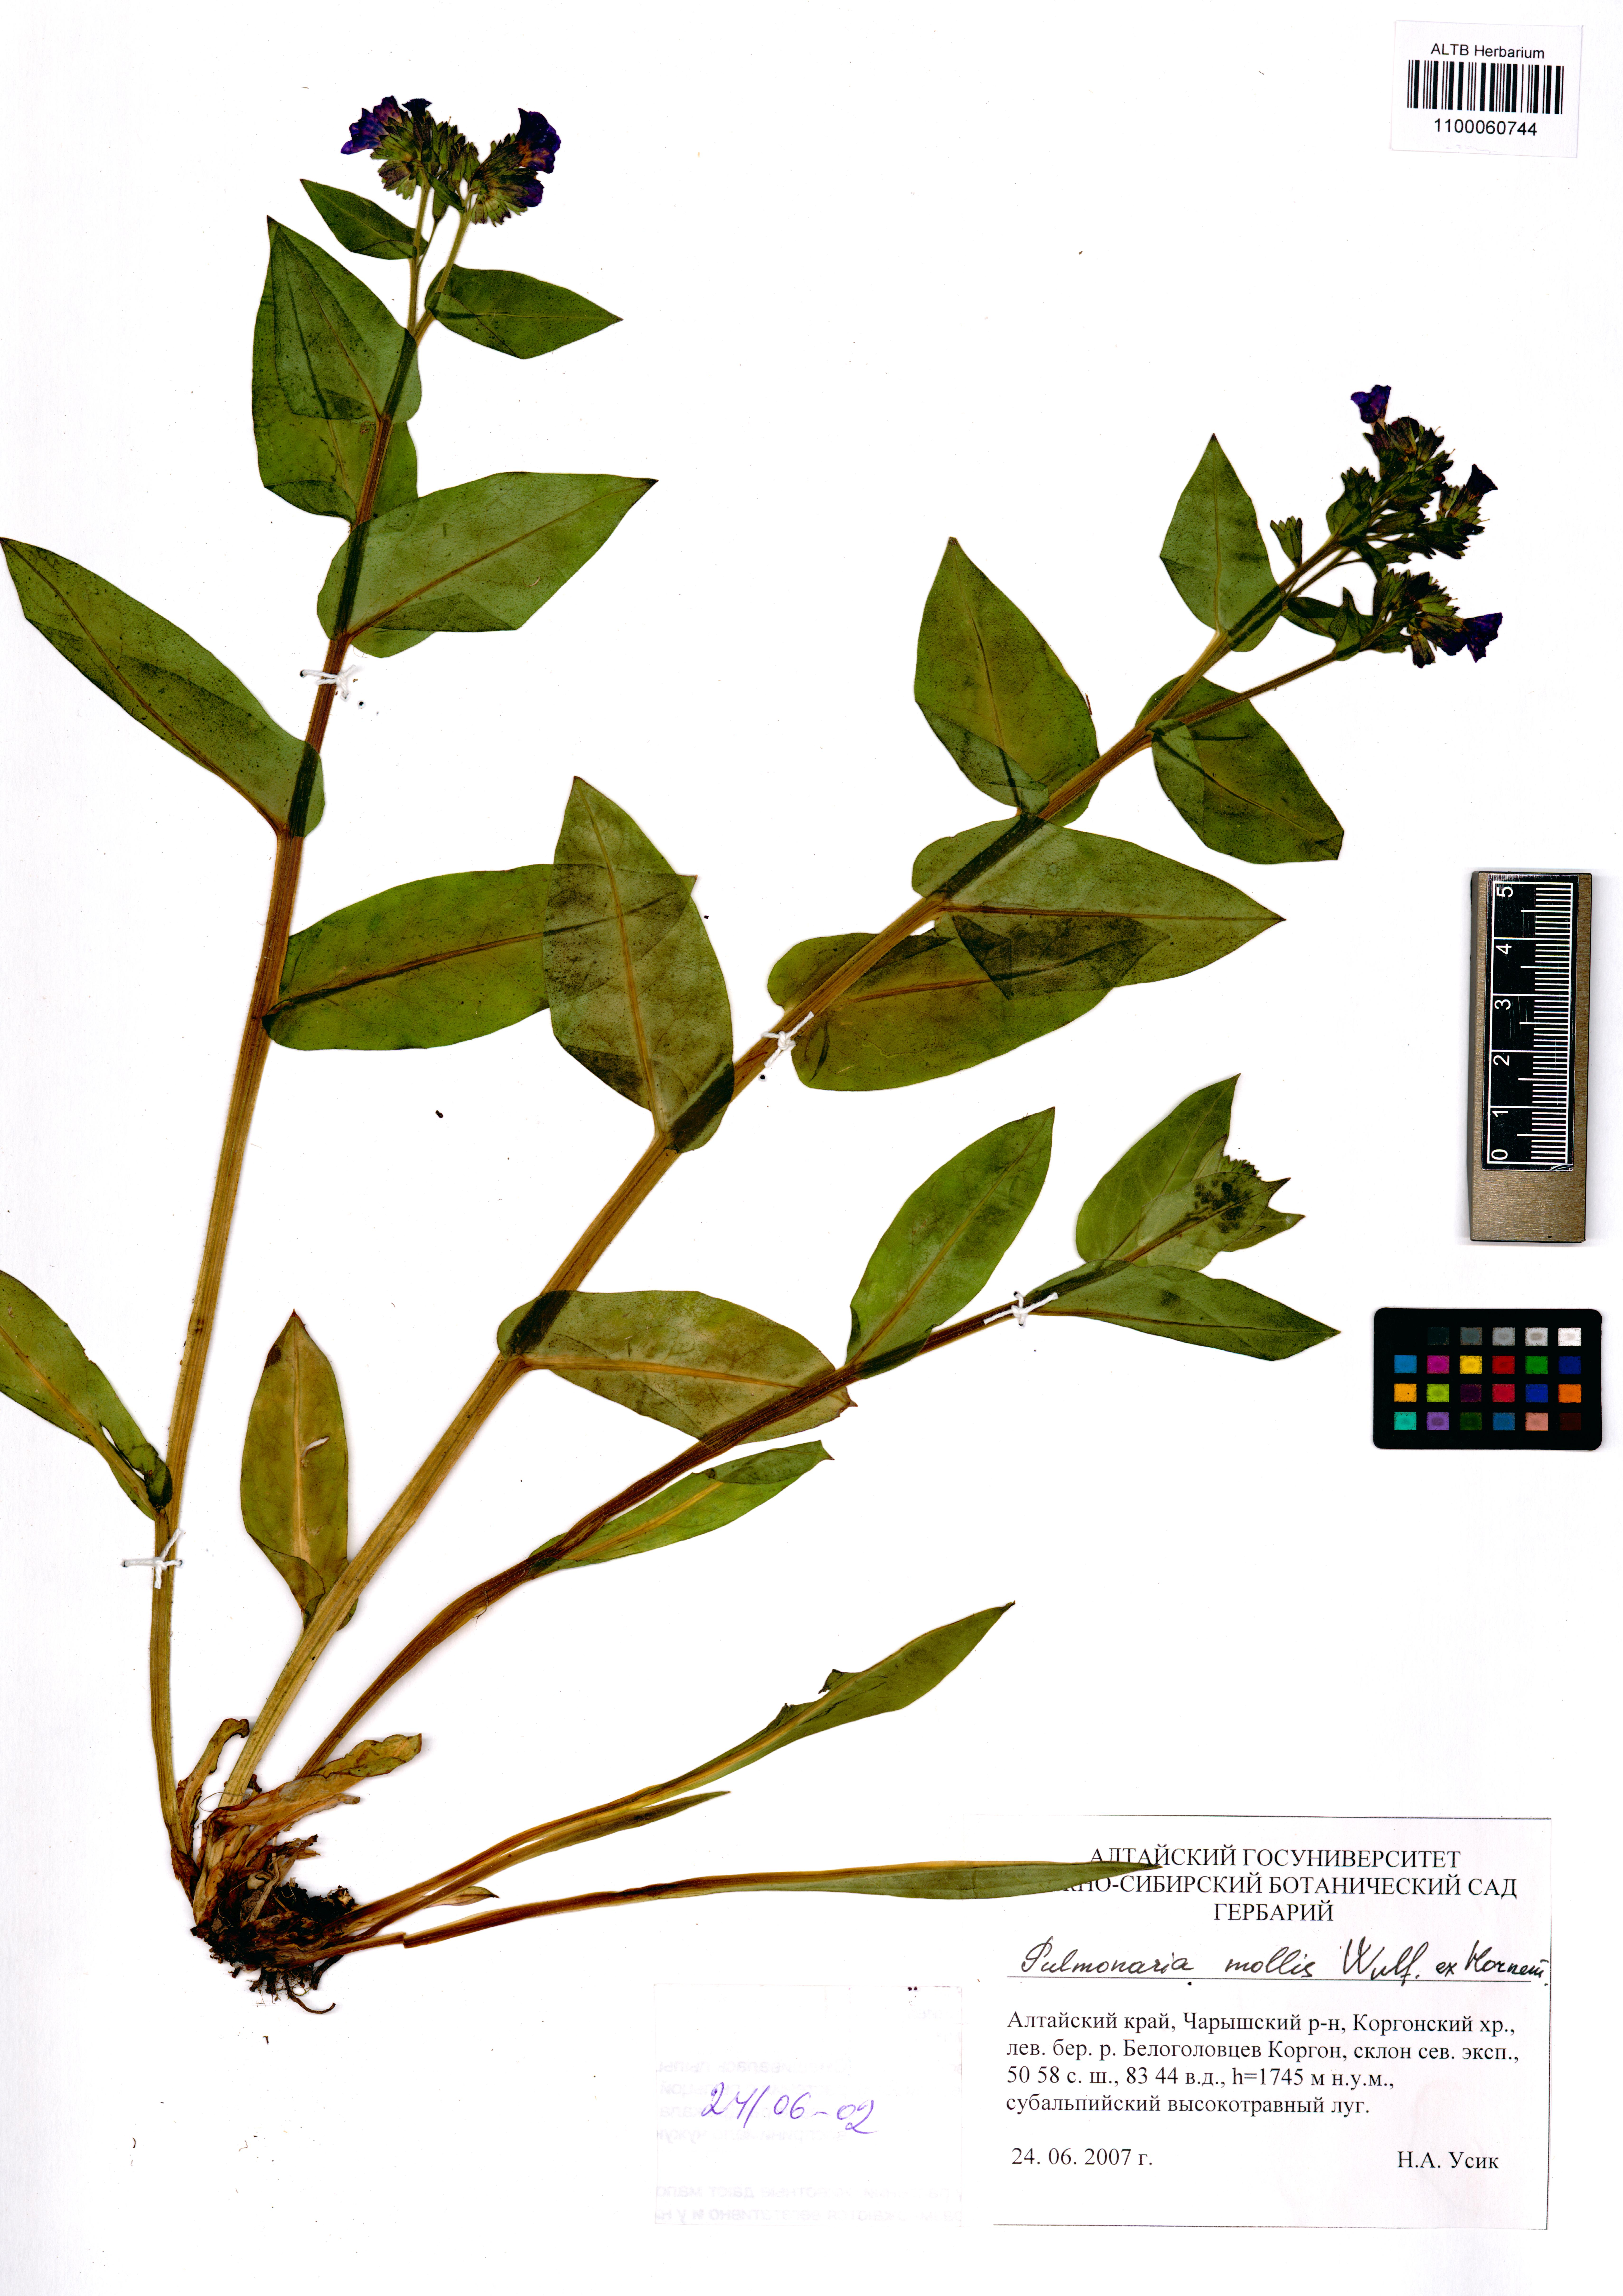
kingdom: Plantae
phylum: Tracheophyta
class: Magnoliopsida
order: Boraginales
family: Boraginaceae
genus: Pulmonaria
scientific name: Pulmonaria mollis
